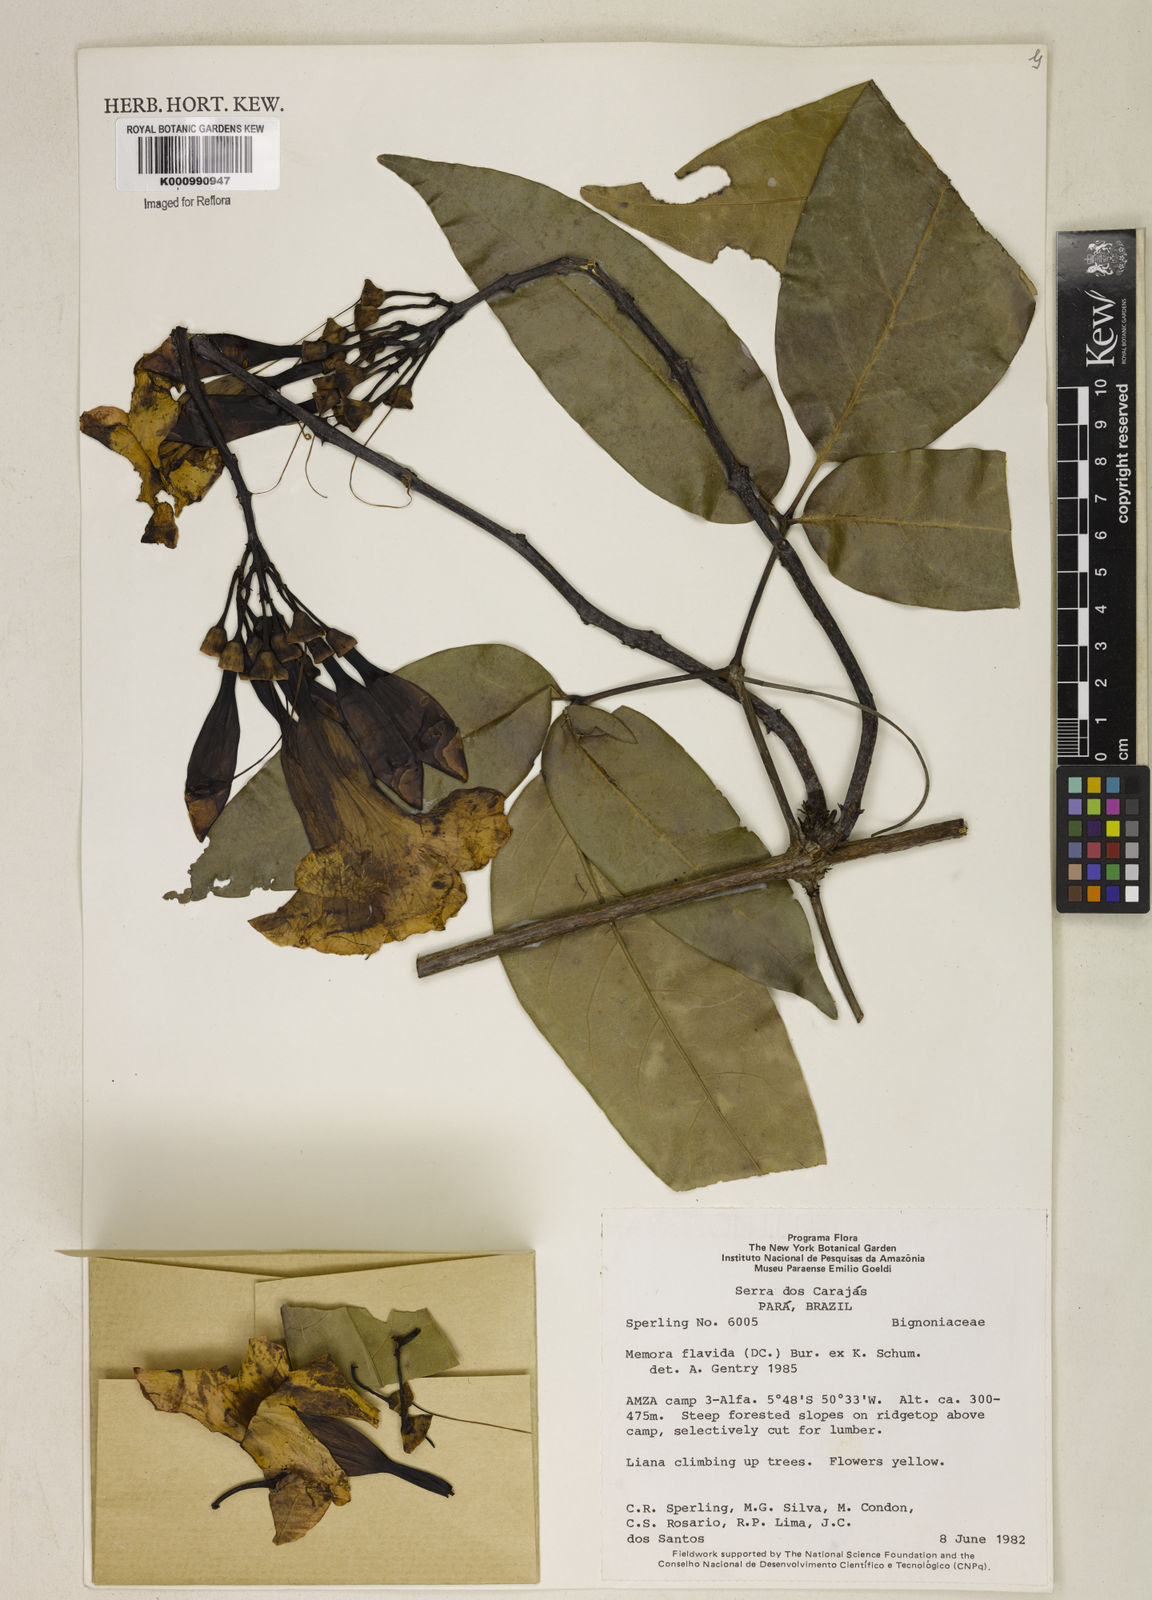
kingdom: Plantae
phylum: Tracheophyta
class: Magnoliopsida
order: Lamiales
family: Bignoniaceae
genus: Adenocalymma
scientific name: Adenocalymma neoflavidum
